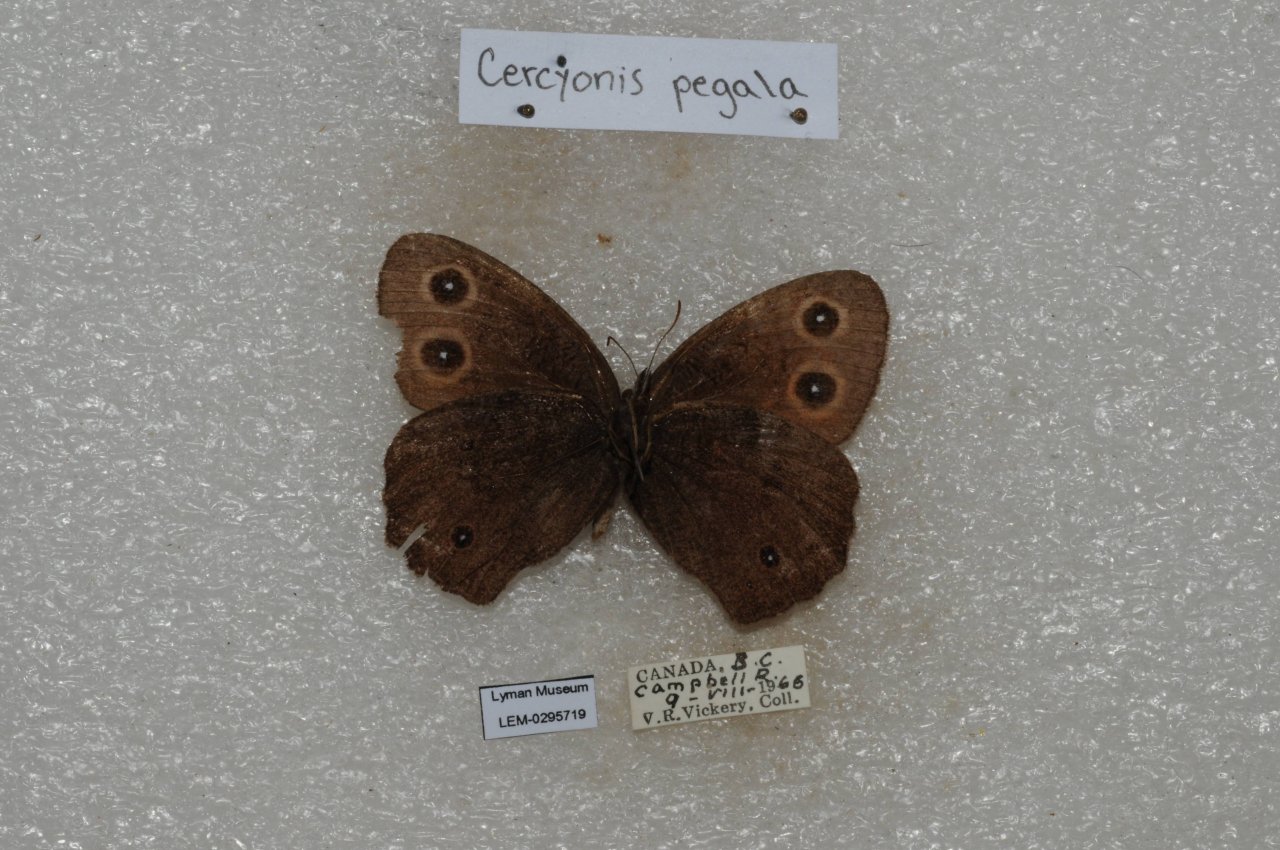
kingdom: Animalia
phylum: Arthropoda
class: Insecta
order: Lepidoptera
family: Nymphalidae
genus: Cercyonis
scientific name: Cercyonis pegala
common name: Common Wood-Nymph
